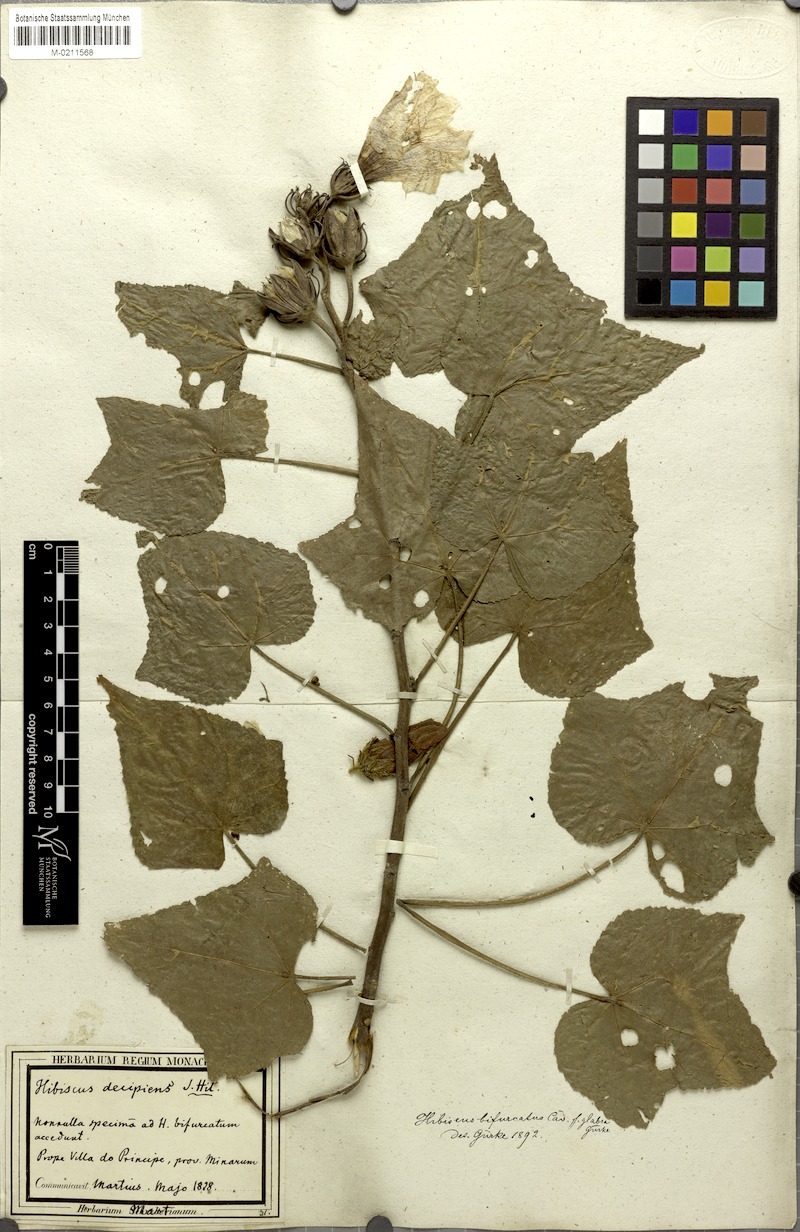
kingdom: Plantae
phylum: Tracheophyta
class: Magnoliopsida
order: Malvales
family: Malvaceae
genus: Hibiscus
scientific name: Hibiscus bifurcatus
